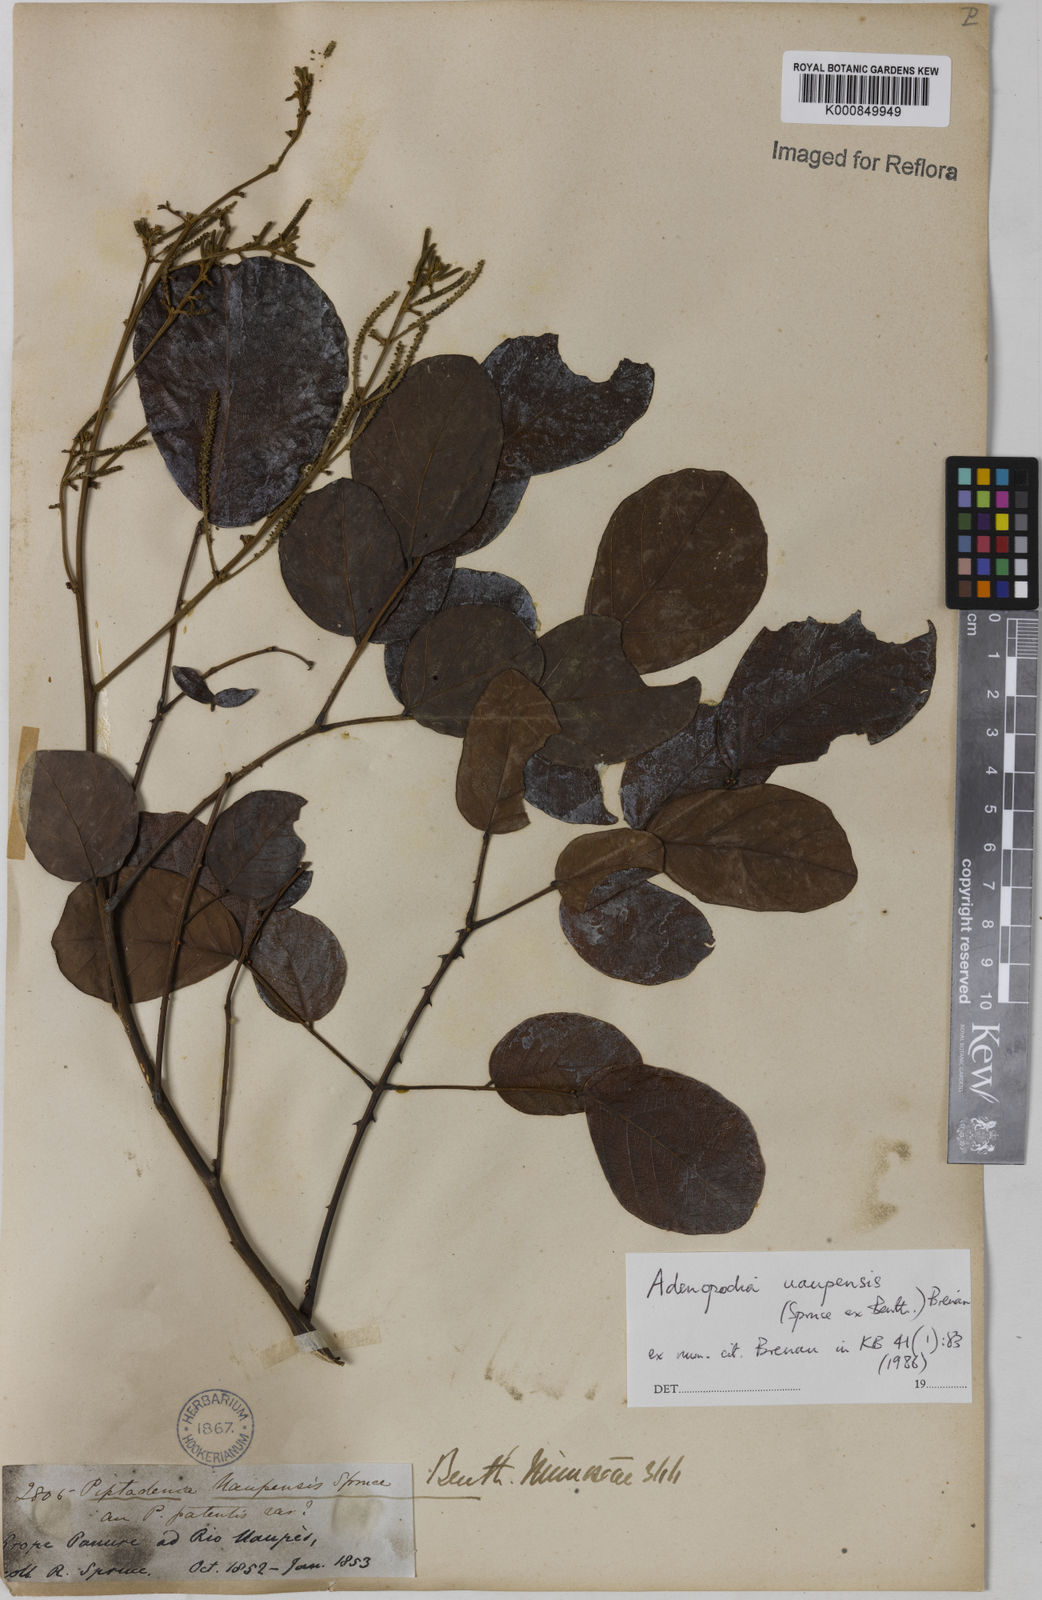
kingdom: Plantae
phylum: Tracheophyta
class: Magnoliopsida
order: Fabales
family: Fabaceae
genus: Piptadenia
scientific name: Piptadenia
